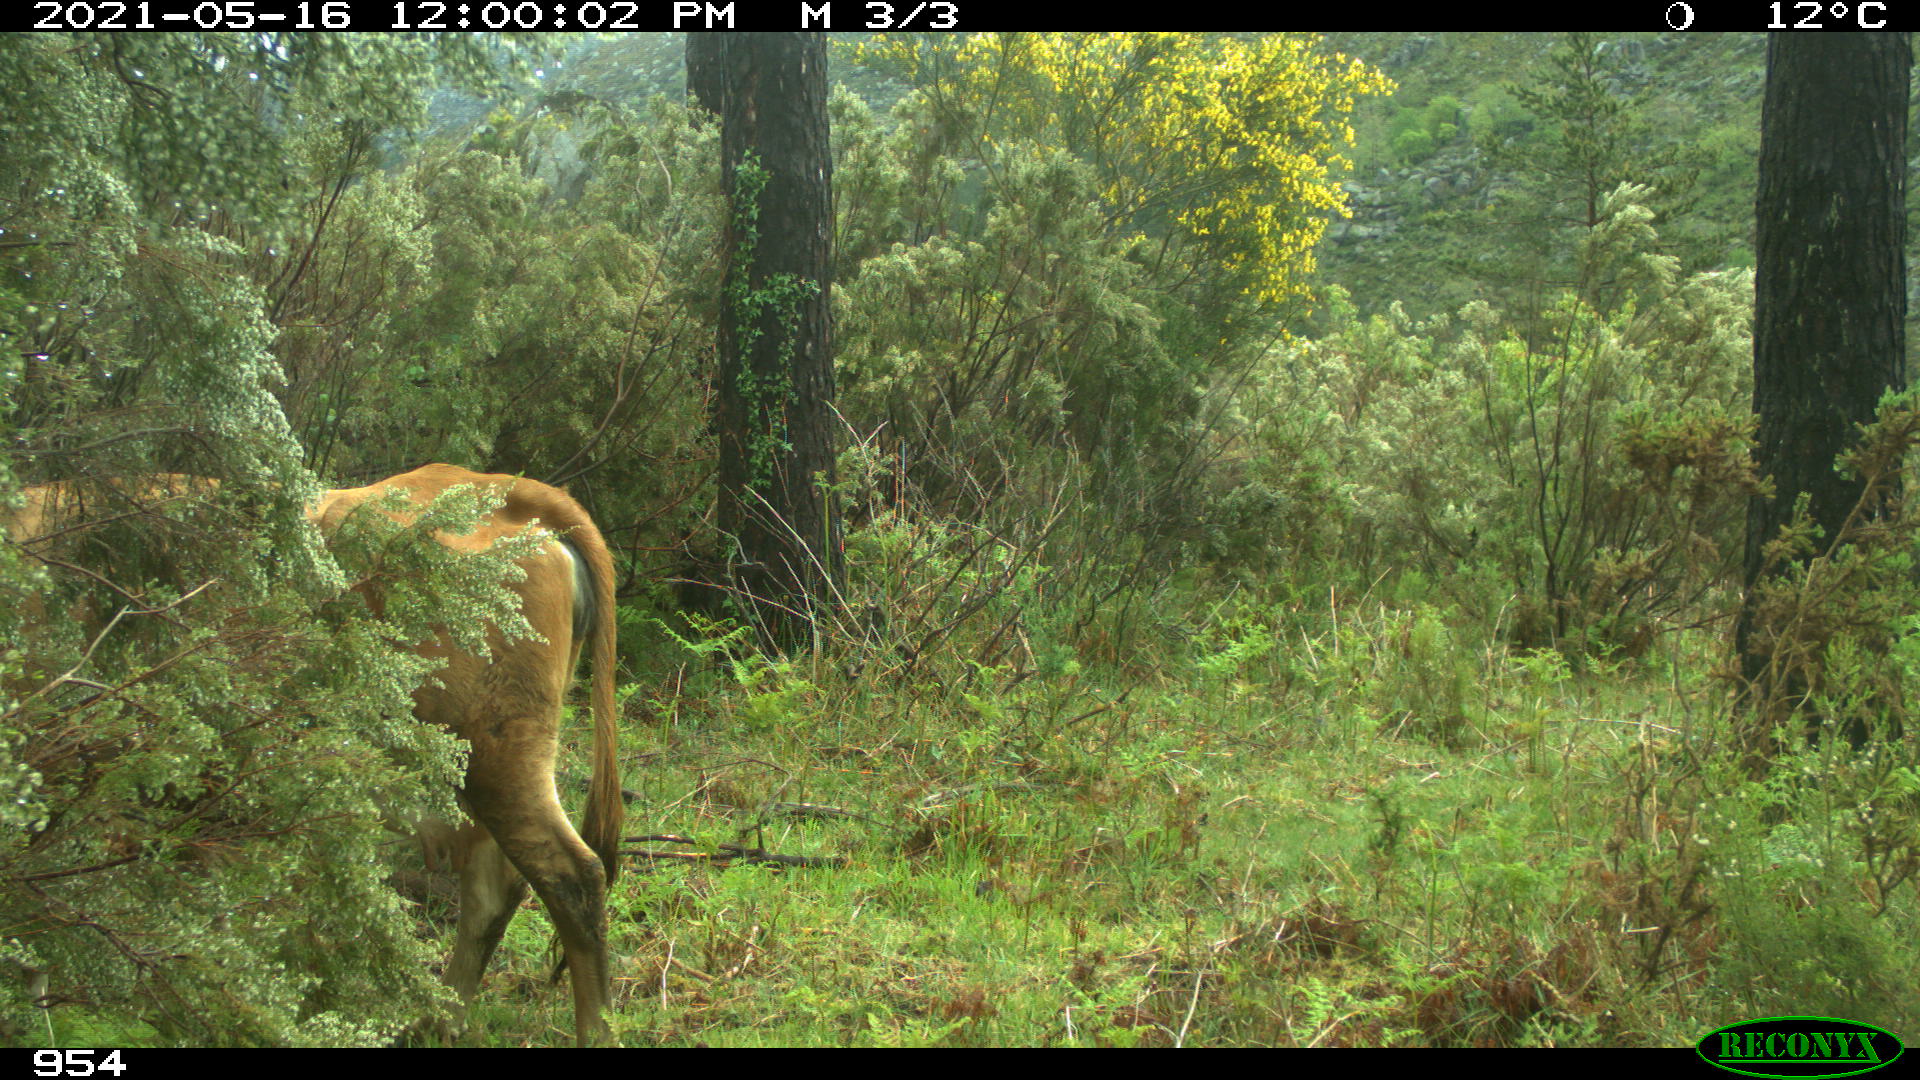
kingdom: Animalia
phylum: Chordata
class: Mammalia
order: Carnivora
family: Canidae
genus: Canis
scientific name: Canis lupus
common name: Gray wolf
